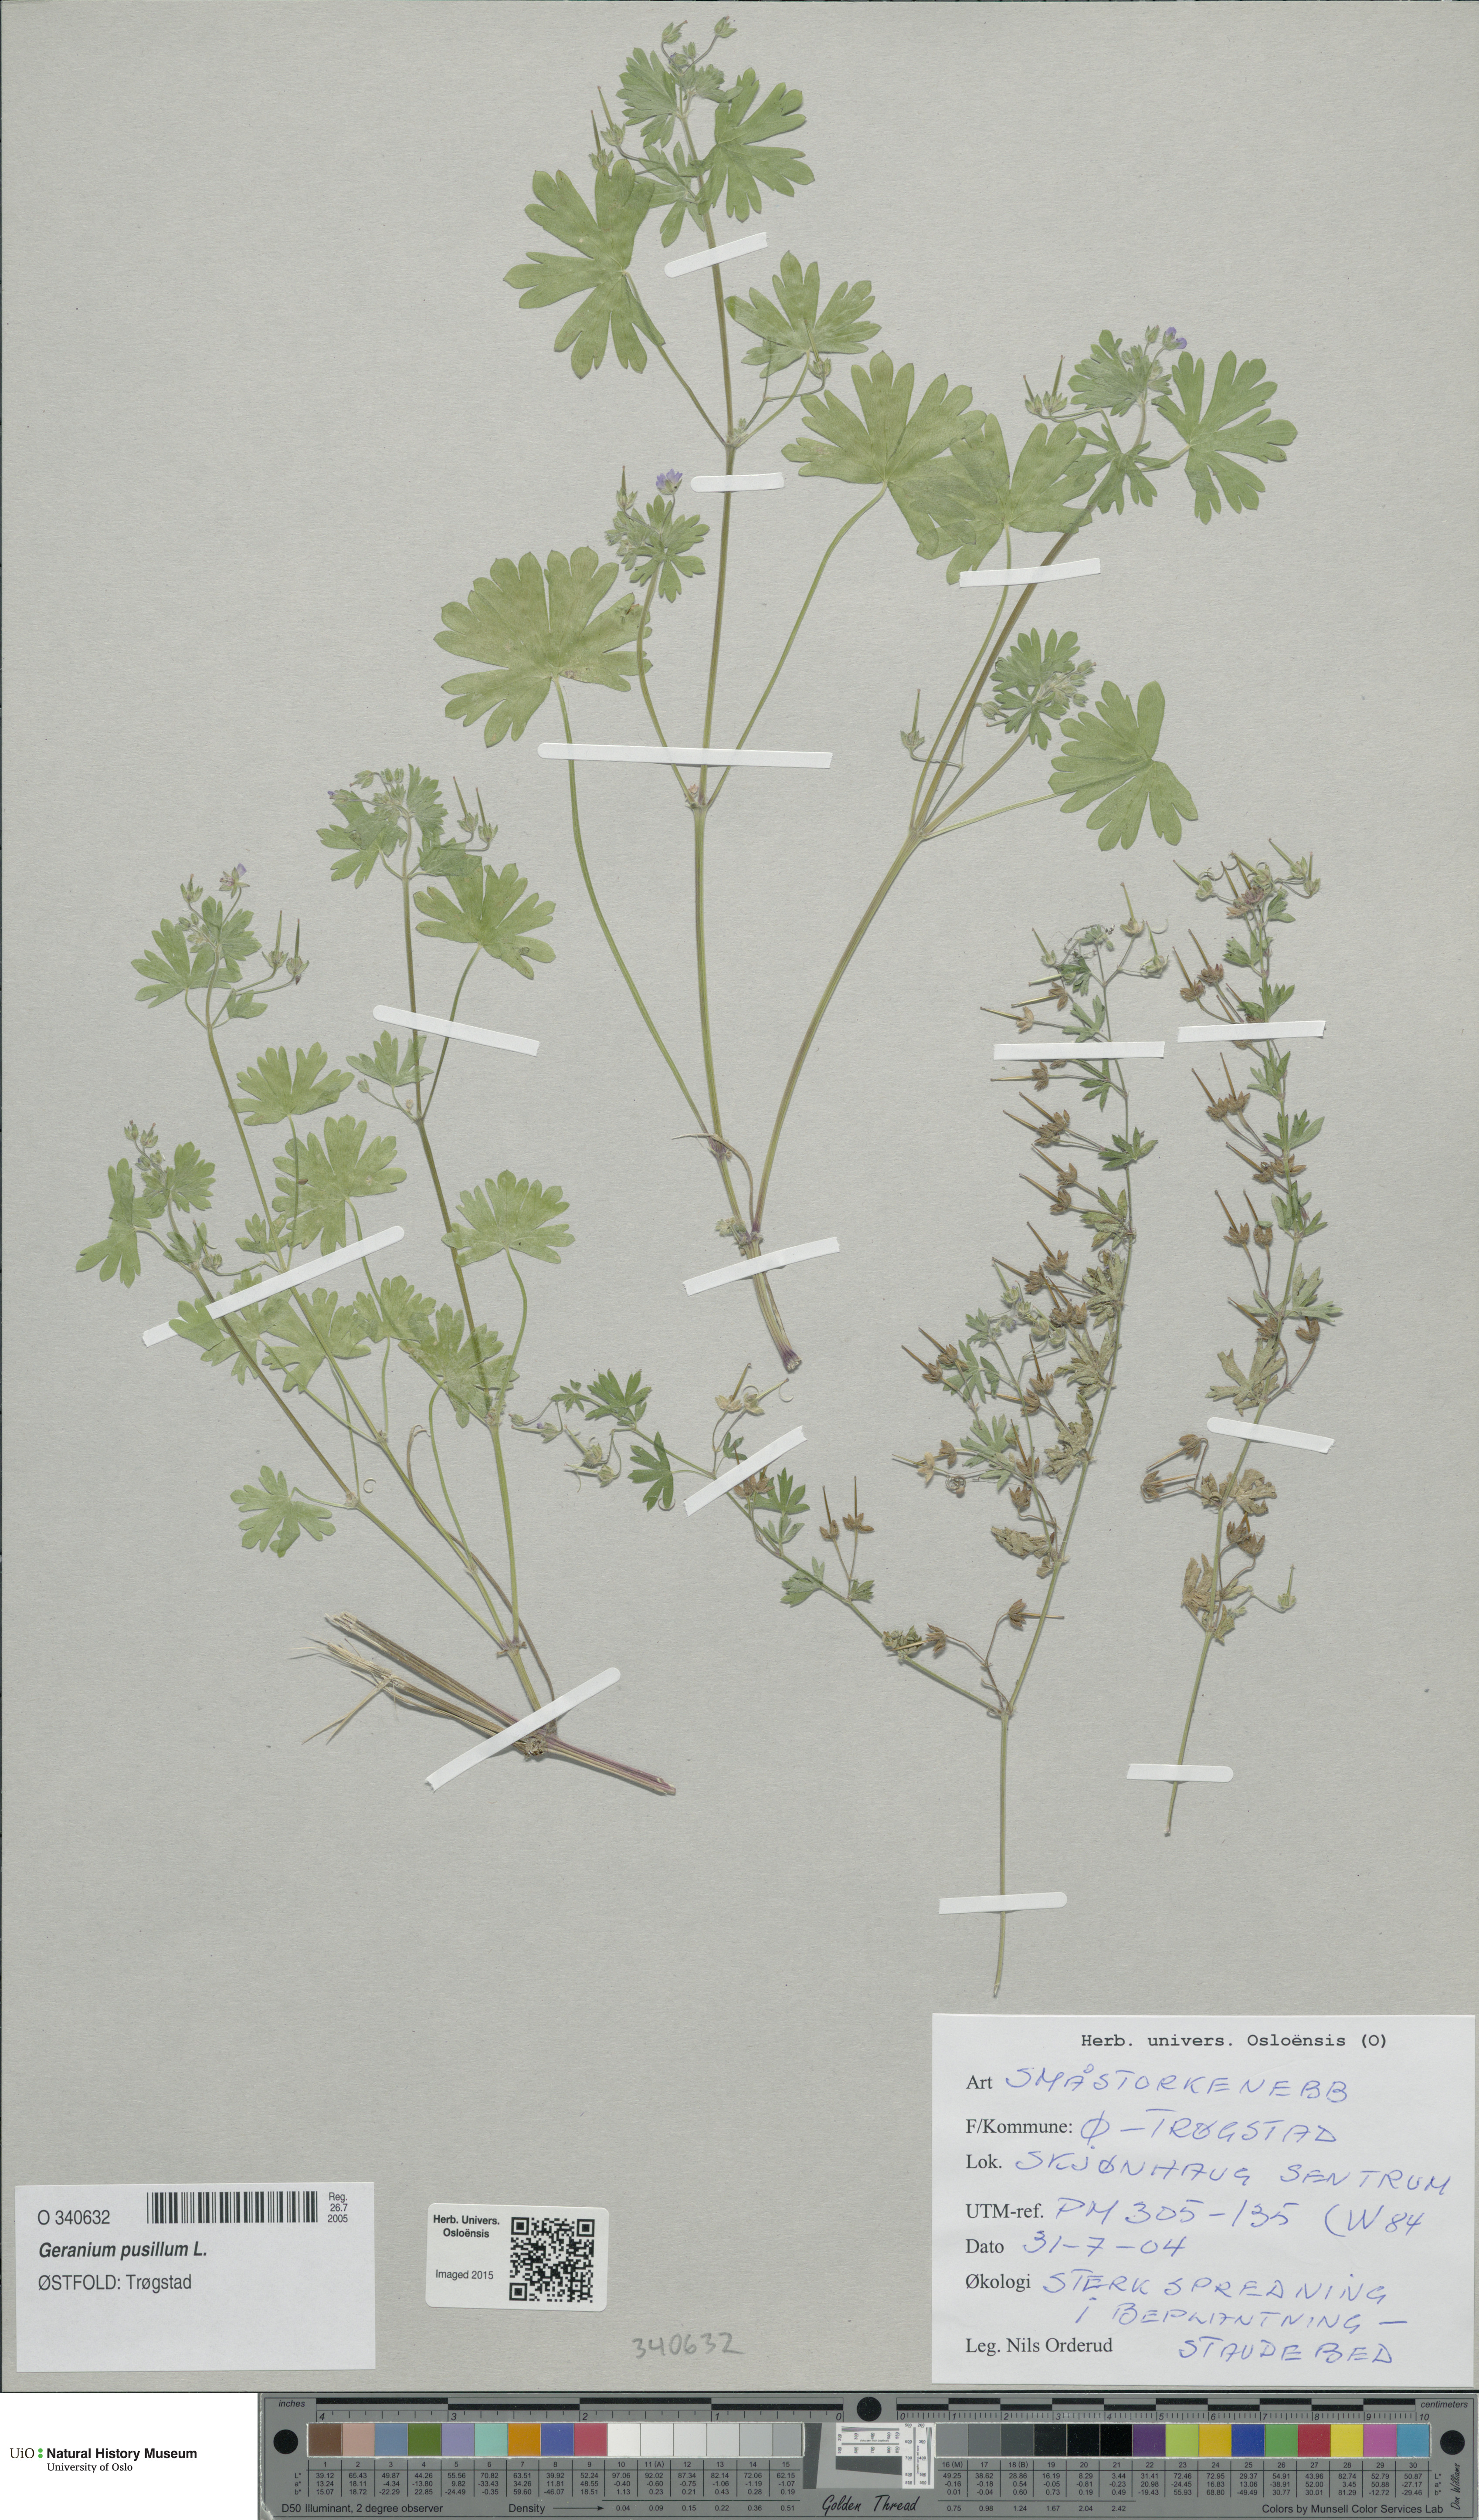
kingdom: Plantae
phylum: Tracheophyta
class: Magnoliopsida
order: Geraniales
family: Geraniaceae
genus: Geranium
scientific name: Geranium pusillum
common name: Small geranium
